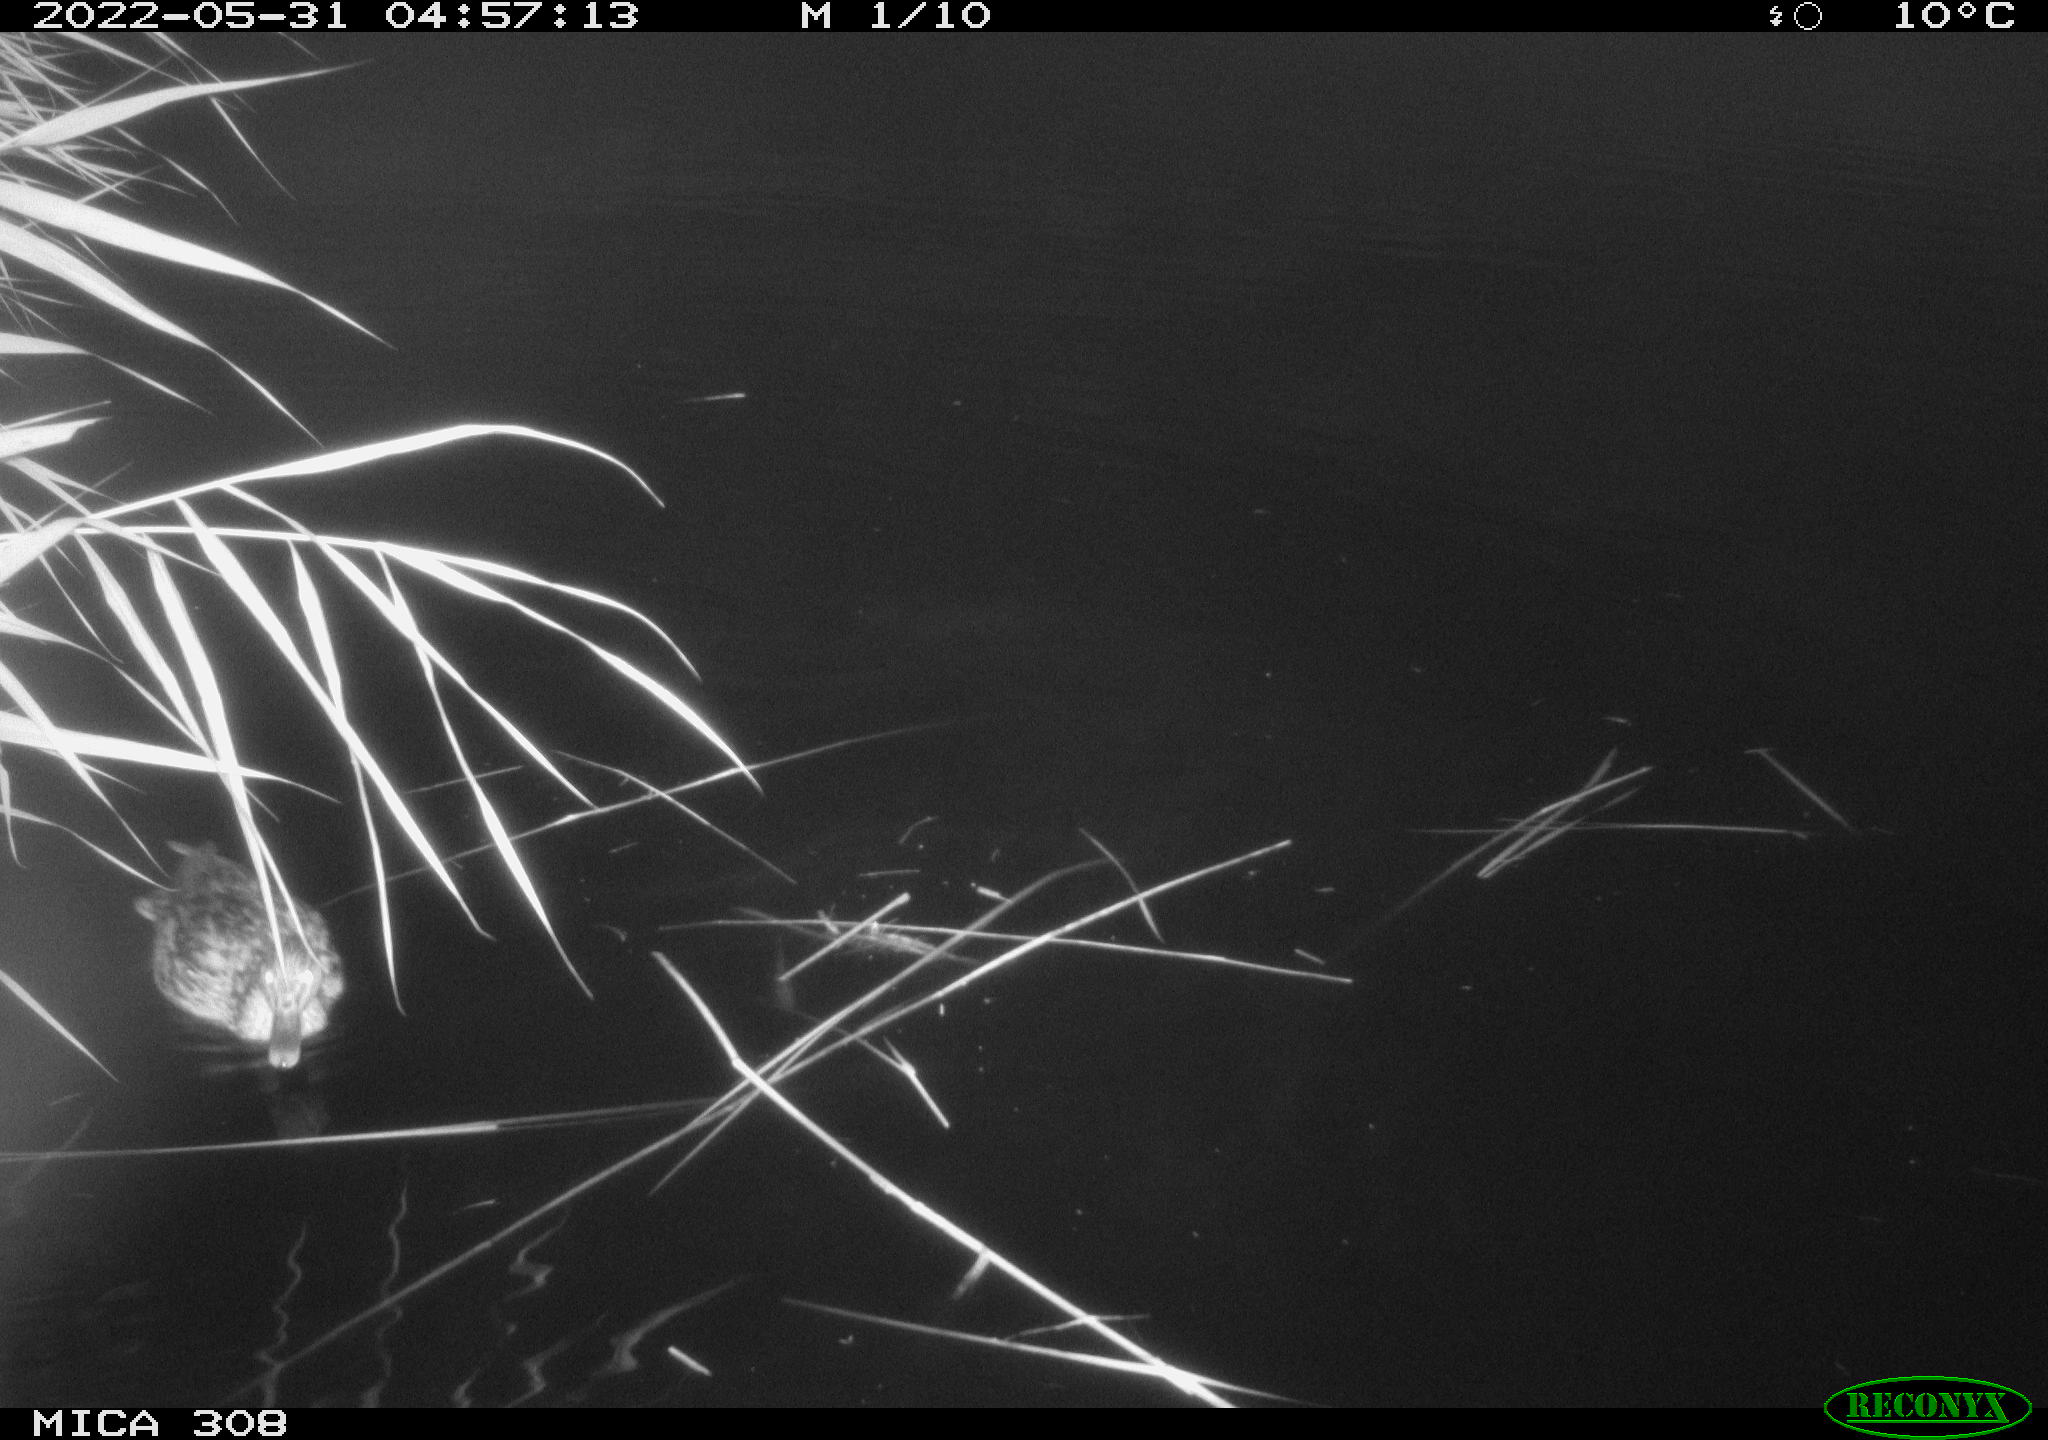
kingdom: Animalia
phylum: Chordata
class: Aves
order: Anseriformes
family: Anatidae
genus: Mareca
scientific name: Mareca strepera
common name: Gadwall
